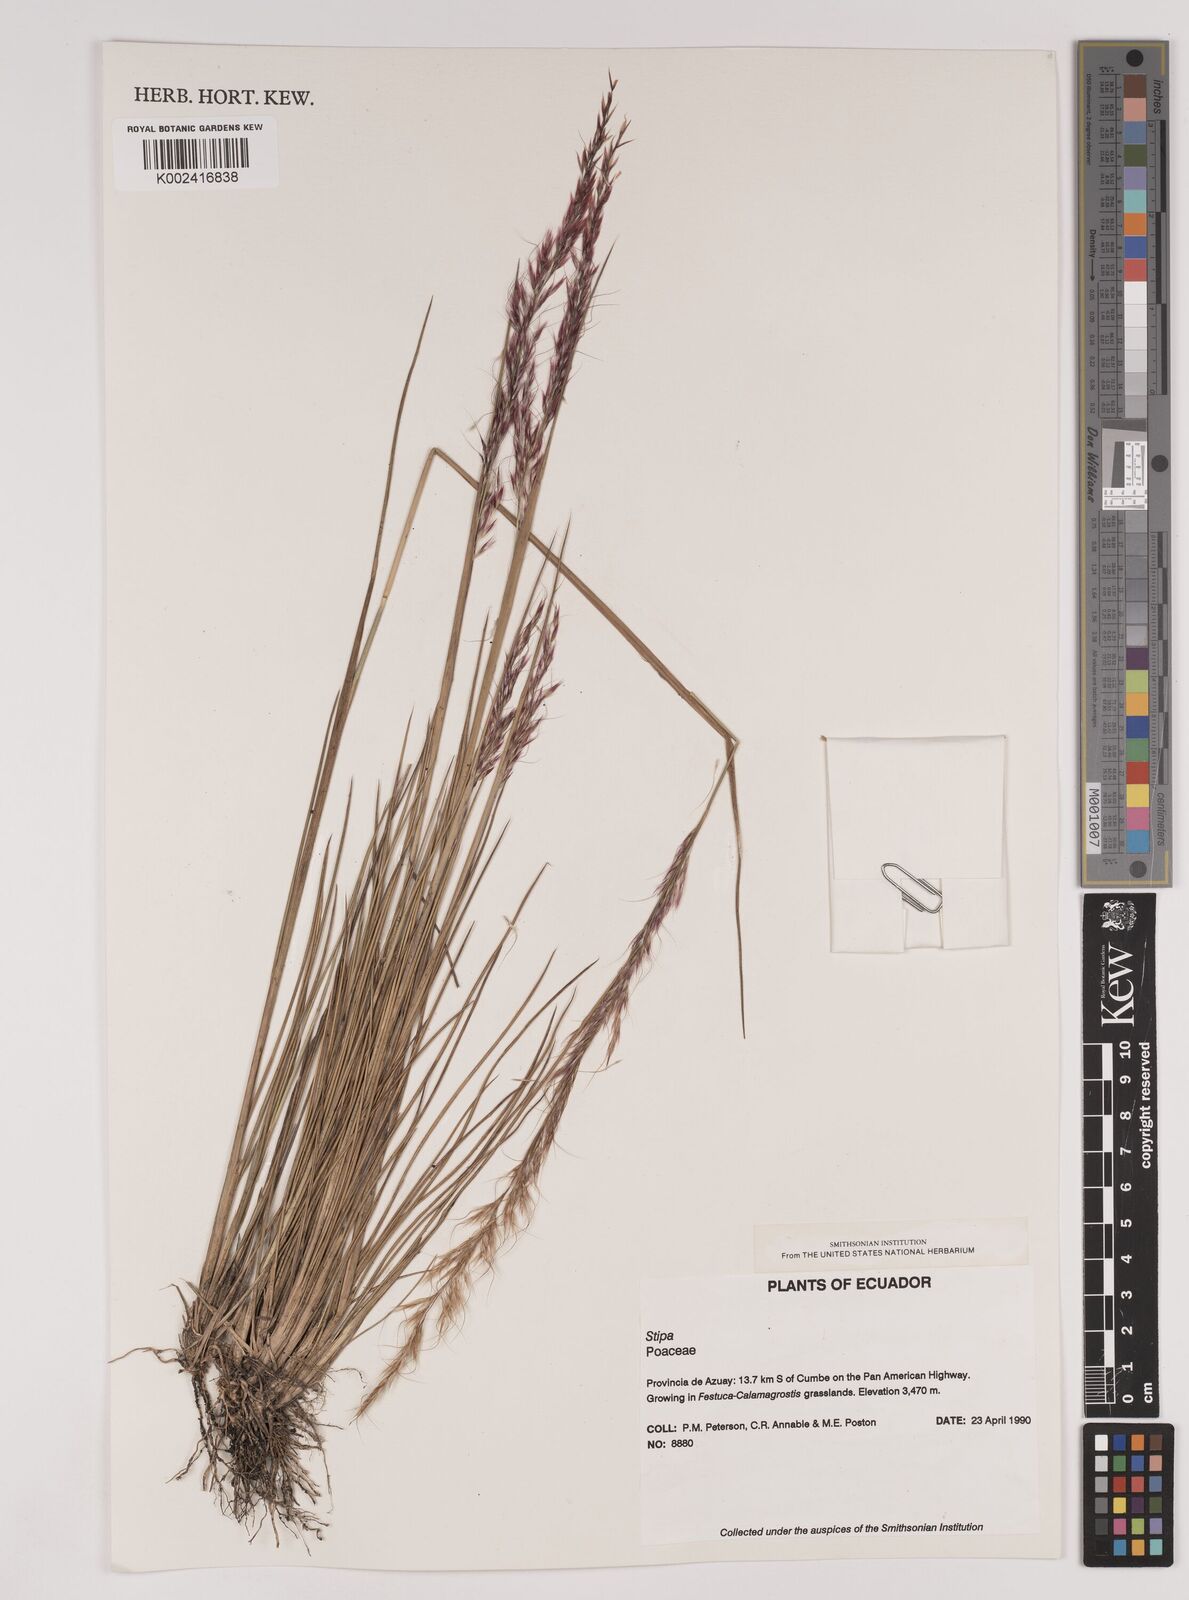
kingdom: Plantae
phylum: Tracheophyta
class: Liliopsida
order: Poales
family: Poaceae
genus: Stipa
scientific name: Stipa
